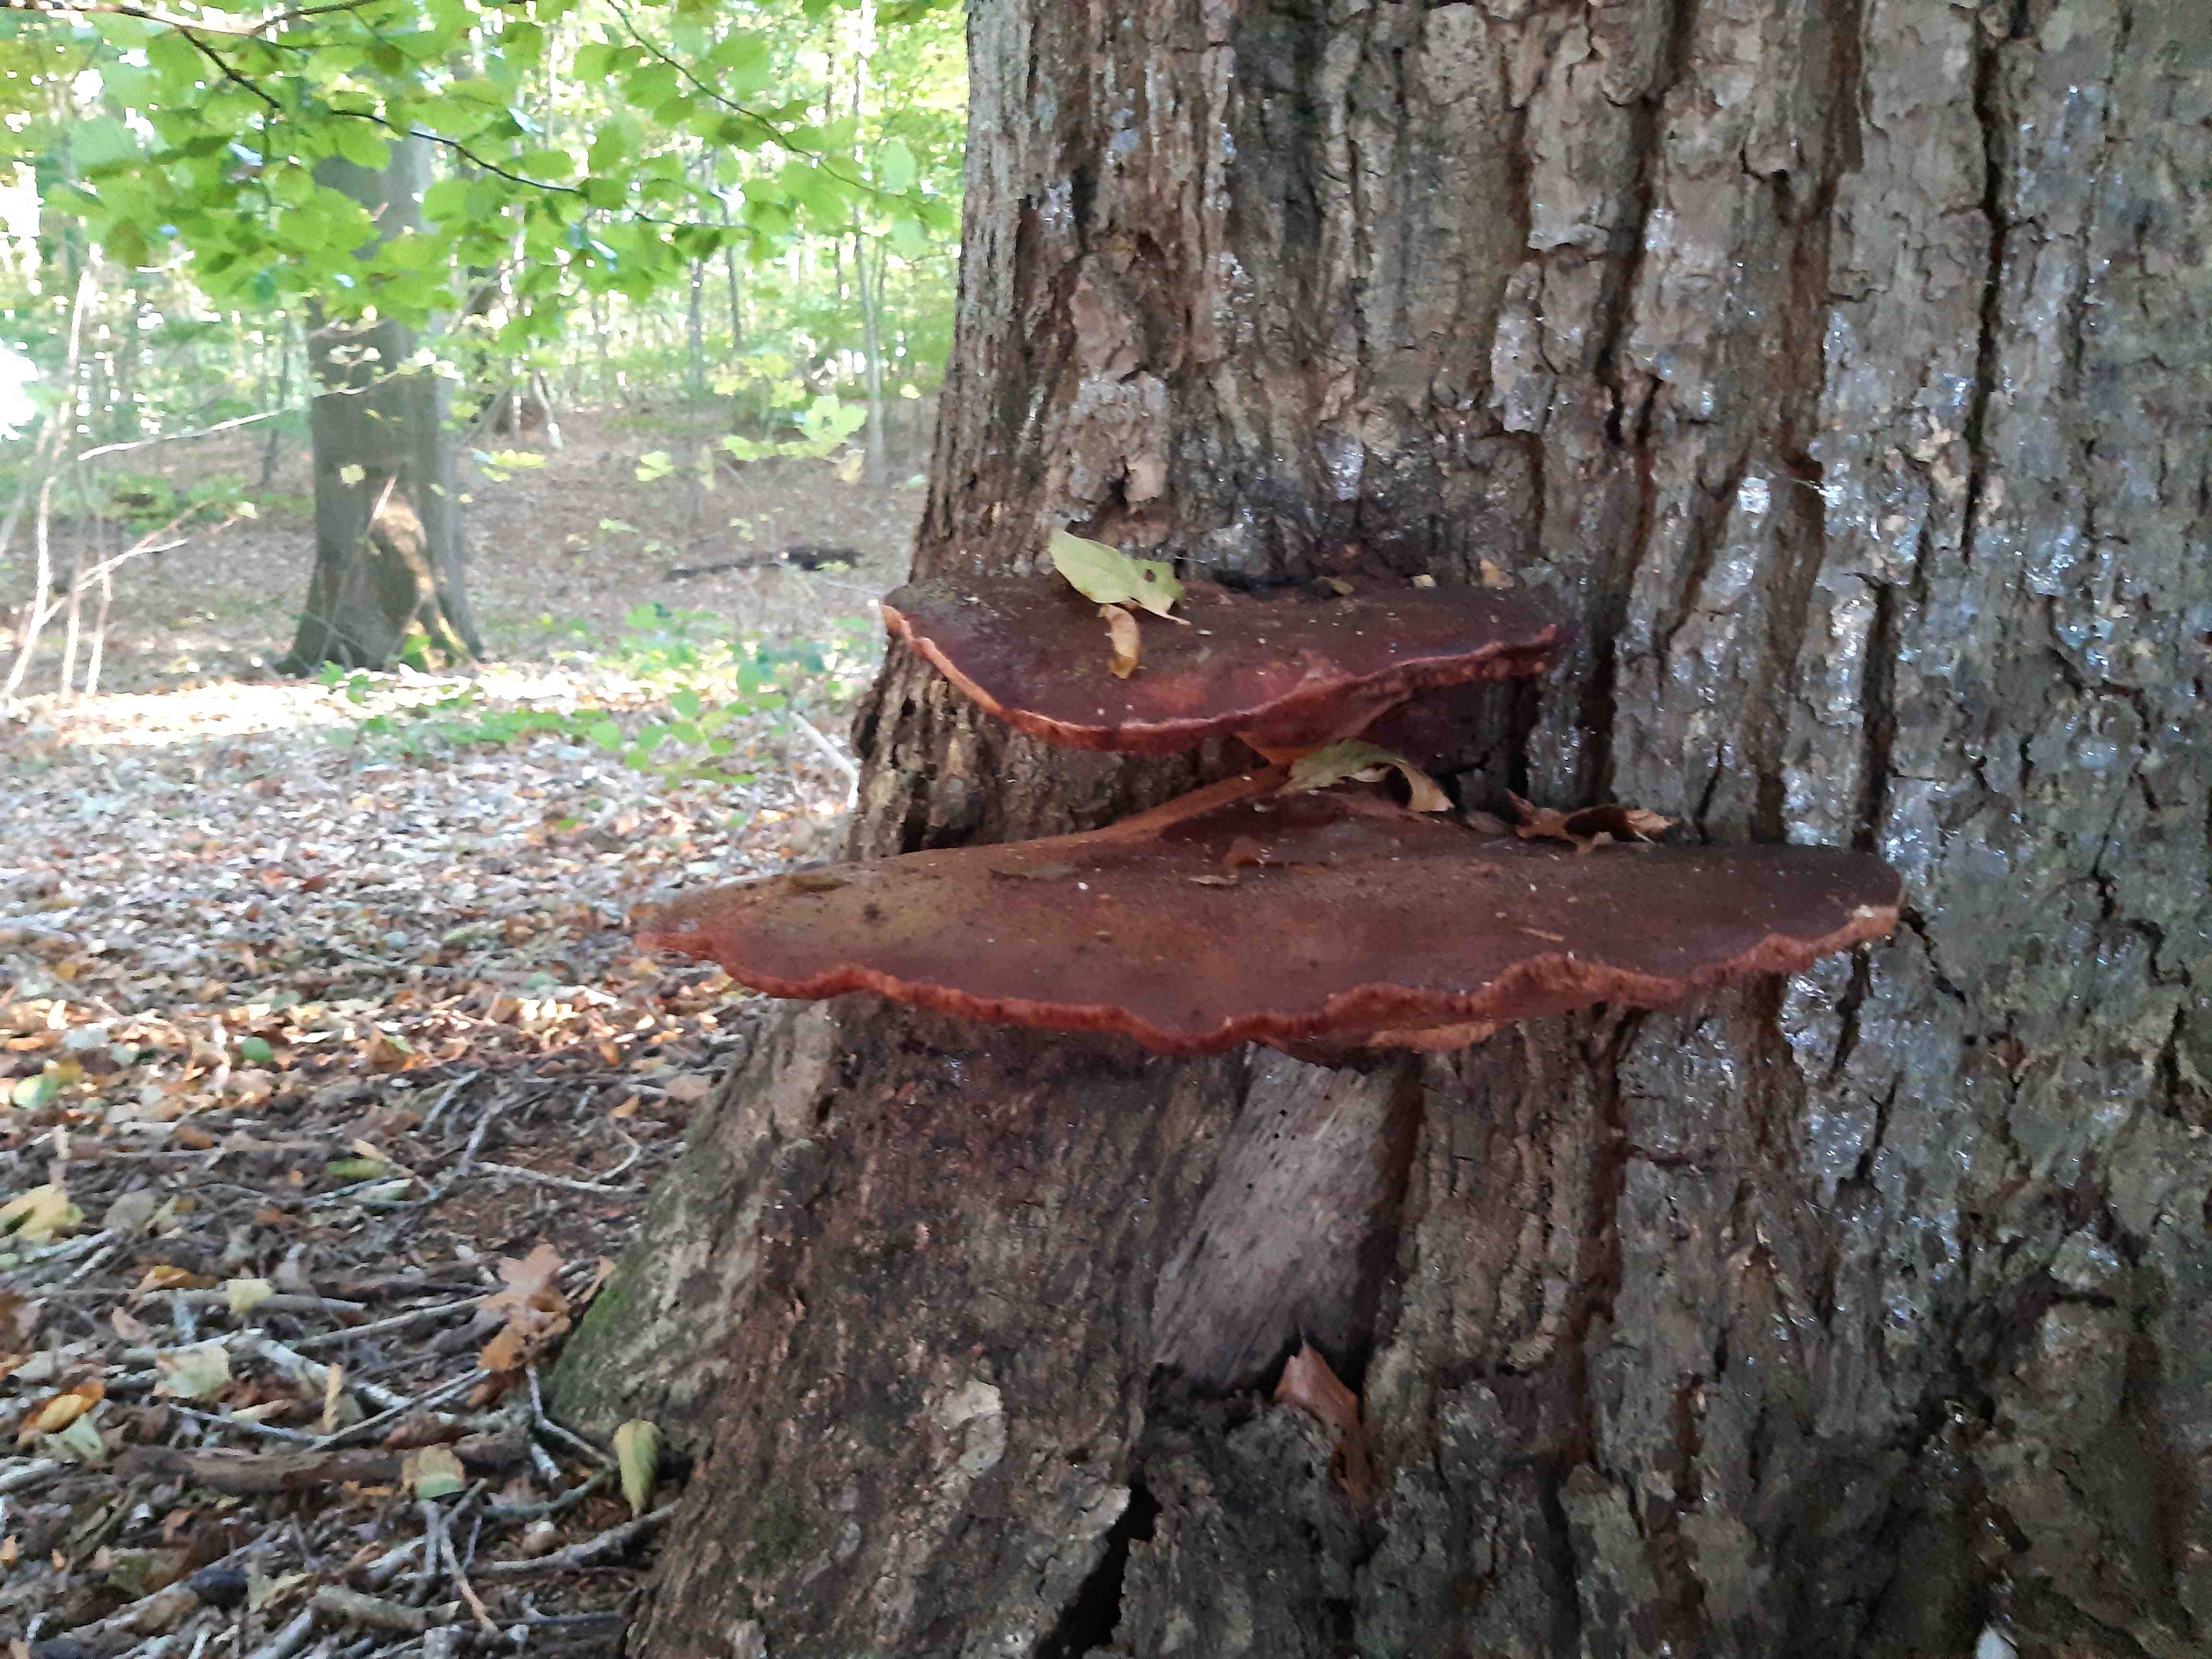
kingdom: Fungi
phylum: Basidiomycota
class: Agaricomycetes
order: Agaricales
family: Fistulinaceae
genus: Fistulina
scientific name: Fistulina hepatica
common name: oksetunge
